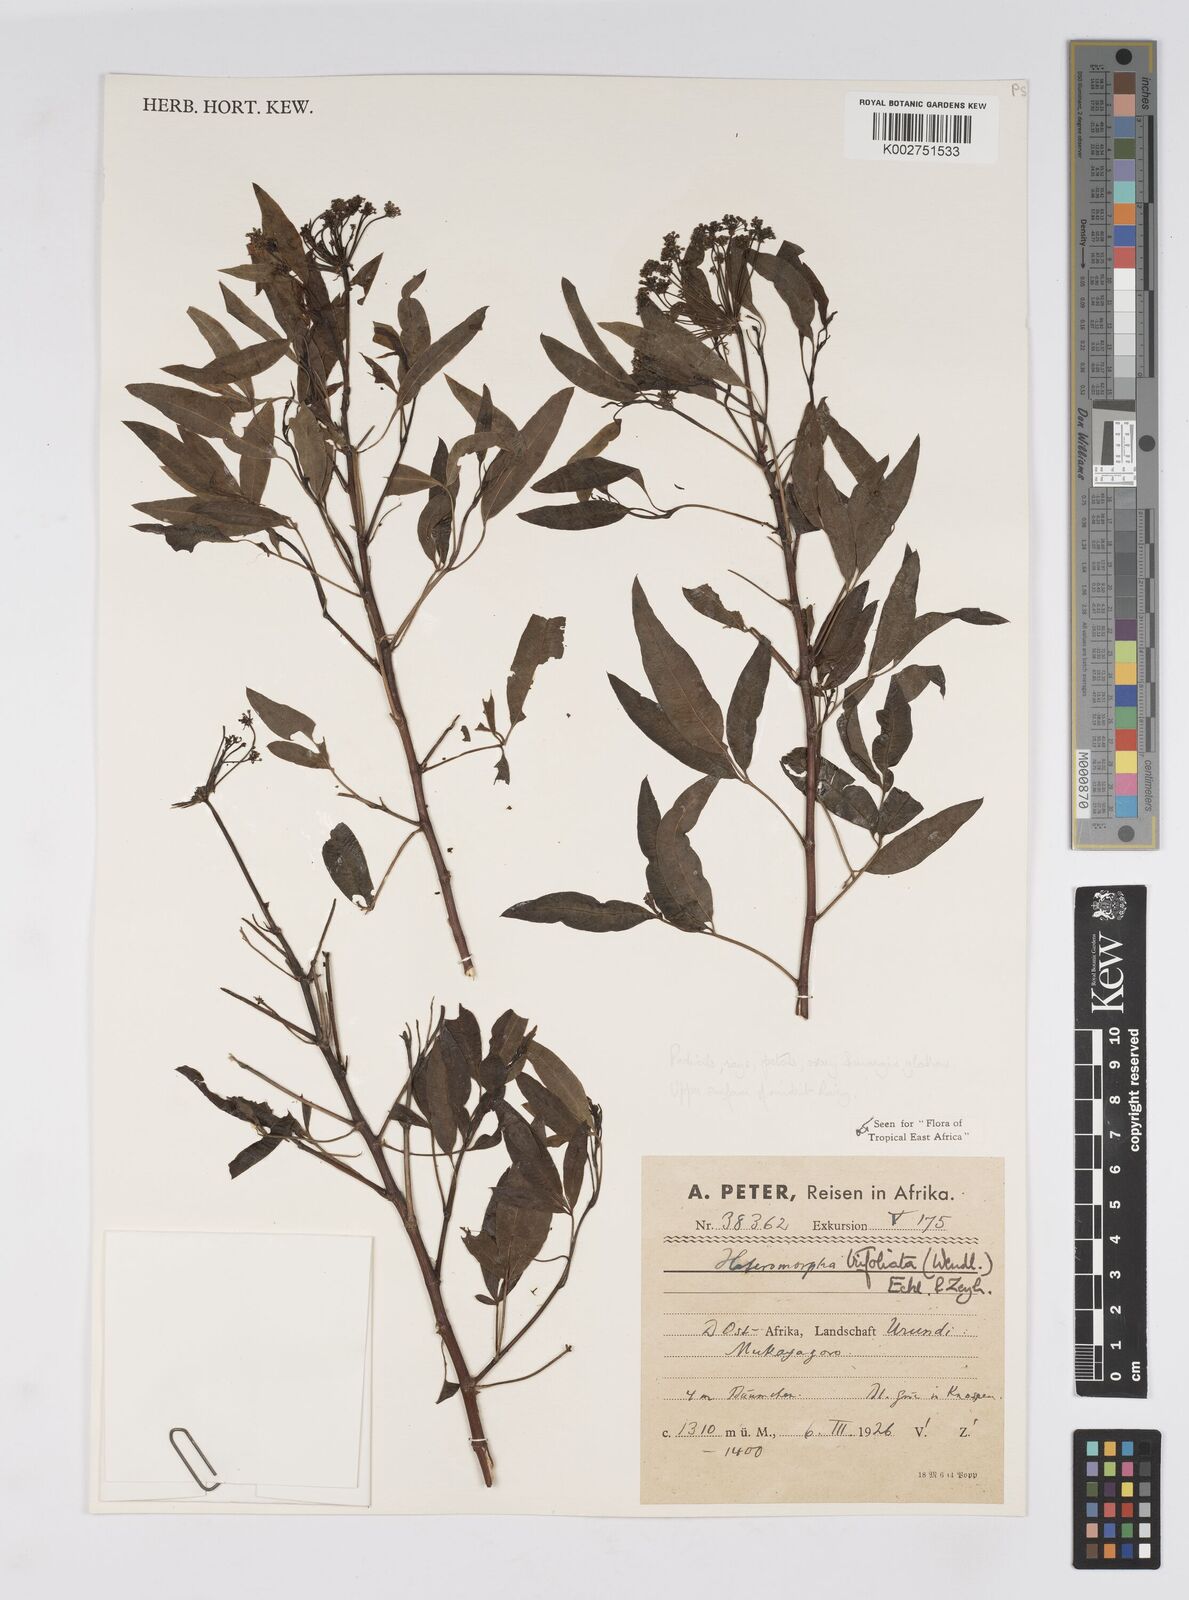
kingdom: Plantae
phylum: Tracheophyta
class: Magnoliopsida
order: Apiales
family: Apiaceae
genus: Heteromorpha
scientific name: Heteromorpha arborescens
